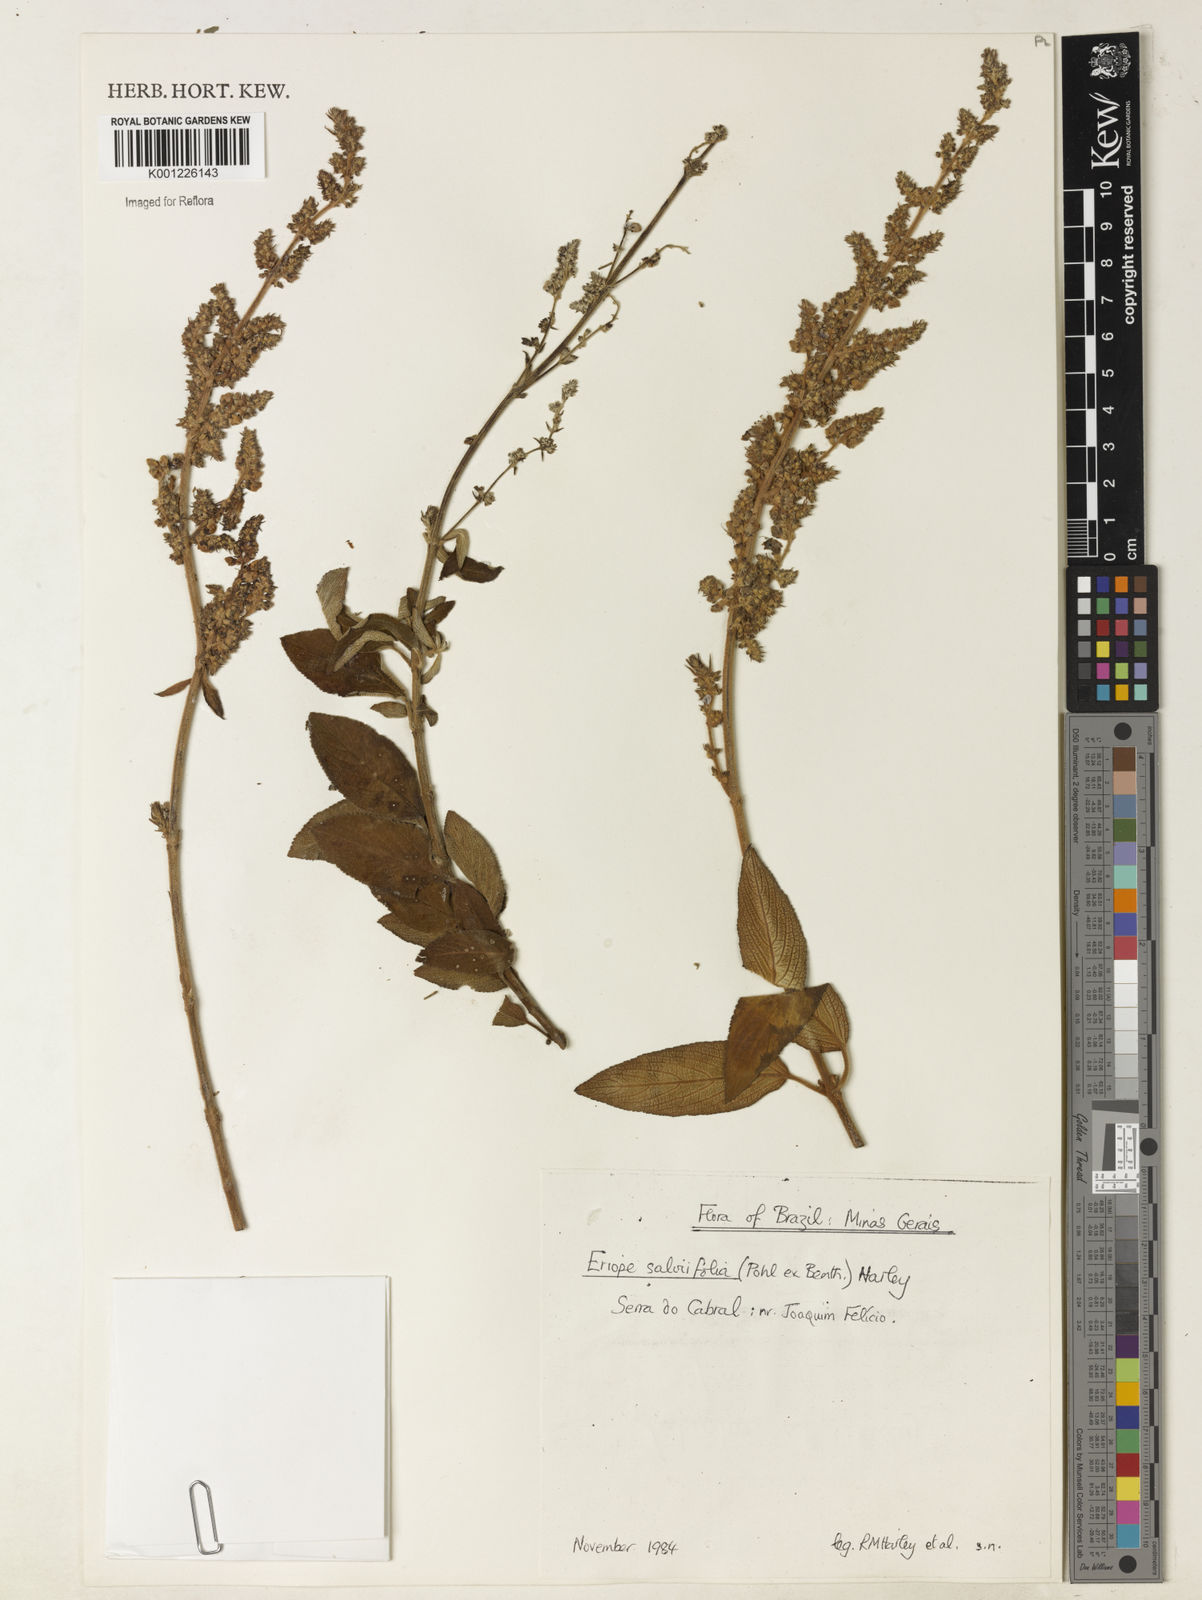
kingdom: Plantae
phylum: Tracheophyta
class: Magnoliopsida
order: Lamiales
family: Lamiaceae
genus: Eriope
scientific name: Eriope salviifolia
